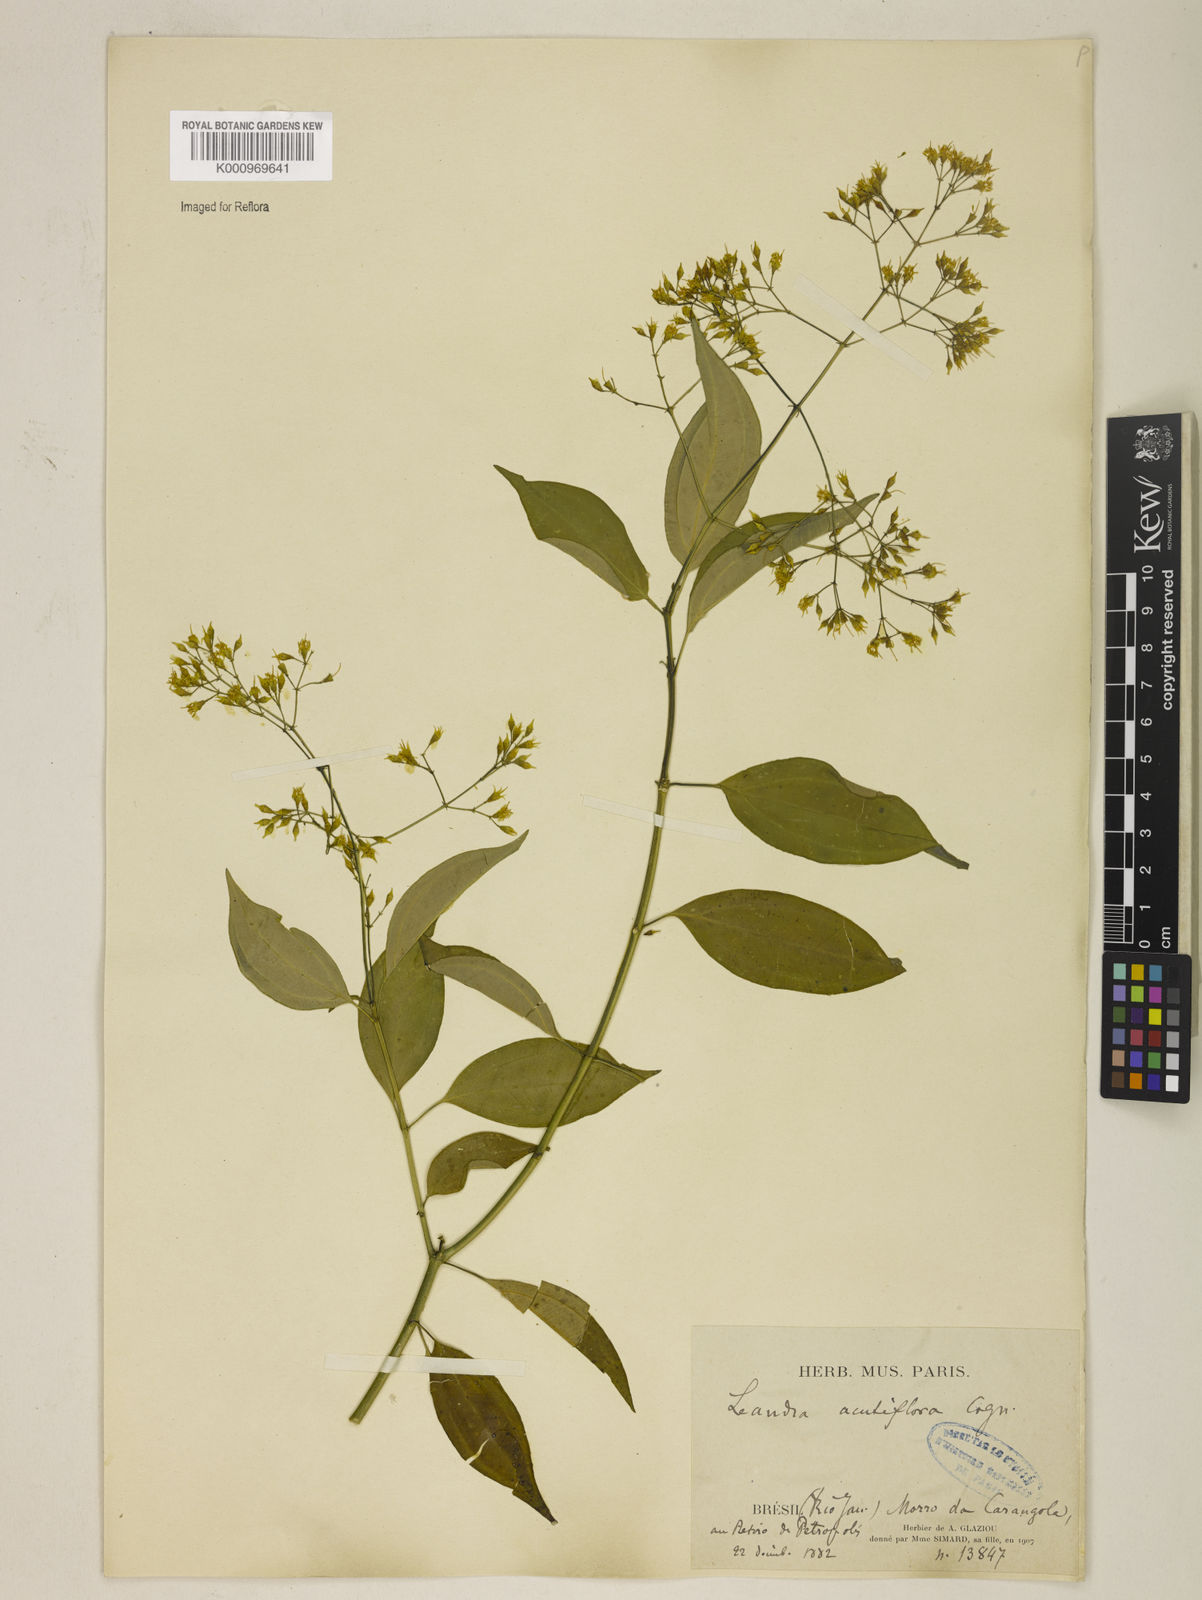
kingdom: Plantae
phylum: Tracheophyta
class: Magnoliopsida
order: Myrtales
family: Melastomataceae
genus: Miconia
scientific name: Miconia acutiflora
